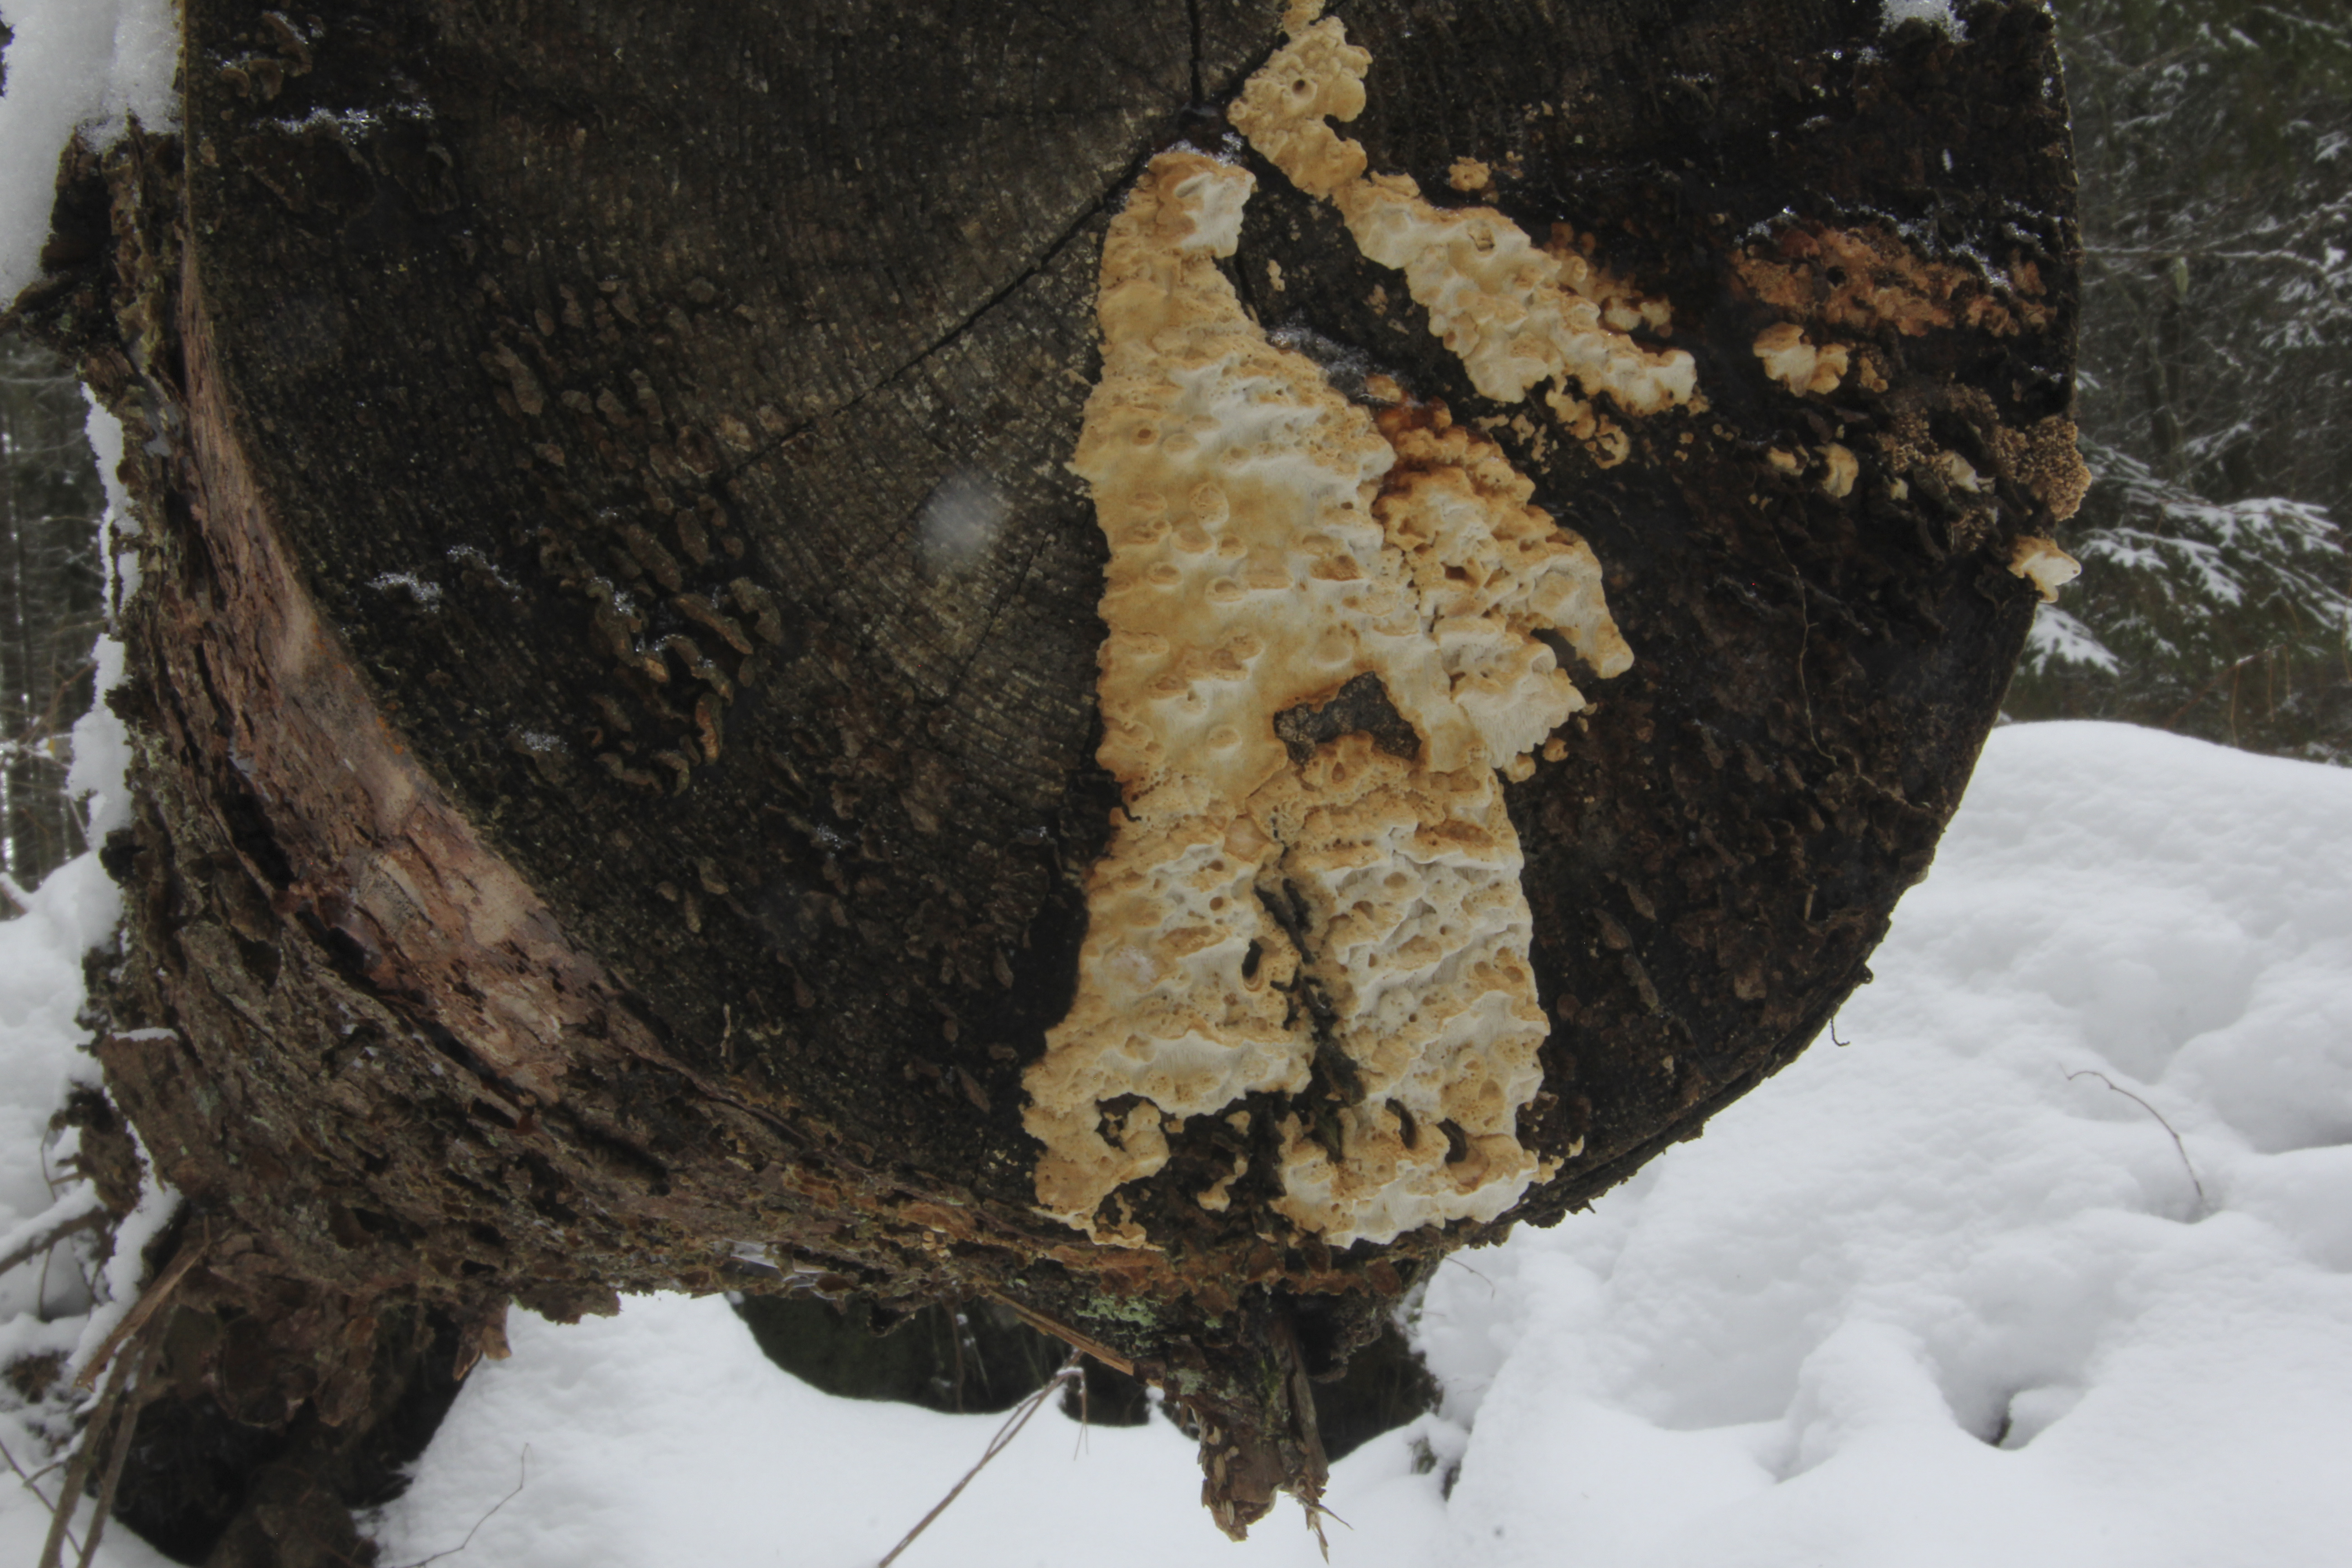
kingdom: Fungi
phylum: Basidiomycota
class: Agaricomycetes
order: Polyporales
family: Fomitopsidaceae
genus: Neoantrodia
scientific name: Neoantrodia serialis
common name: Serried porecrust
